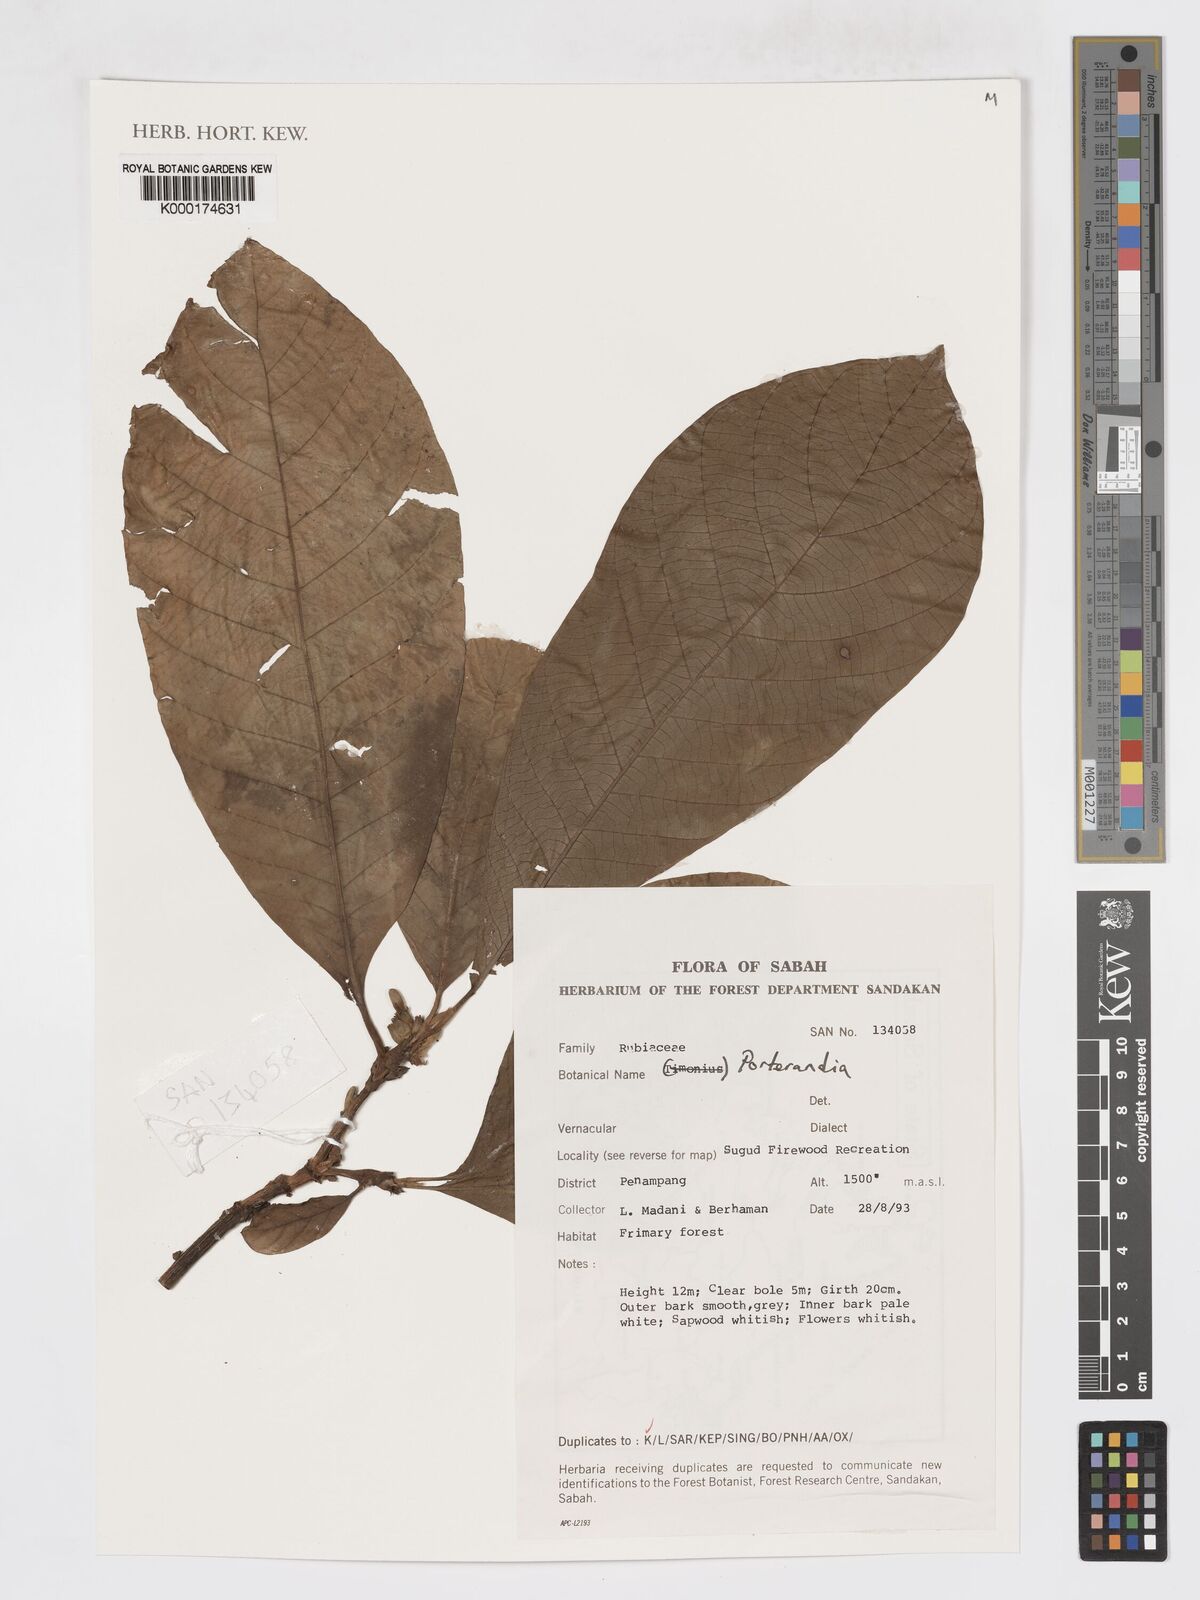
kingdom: Plantae
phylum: Tracheophyta
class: Magnoliopsida
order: Gentianales
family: Rubiaceae
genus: Porterandia
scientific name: Porterandia
